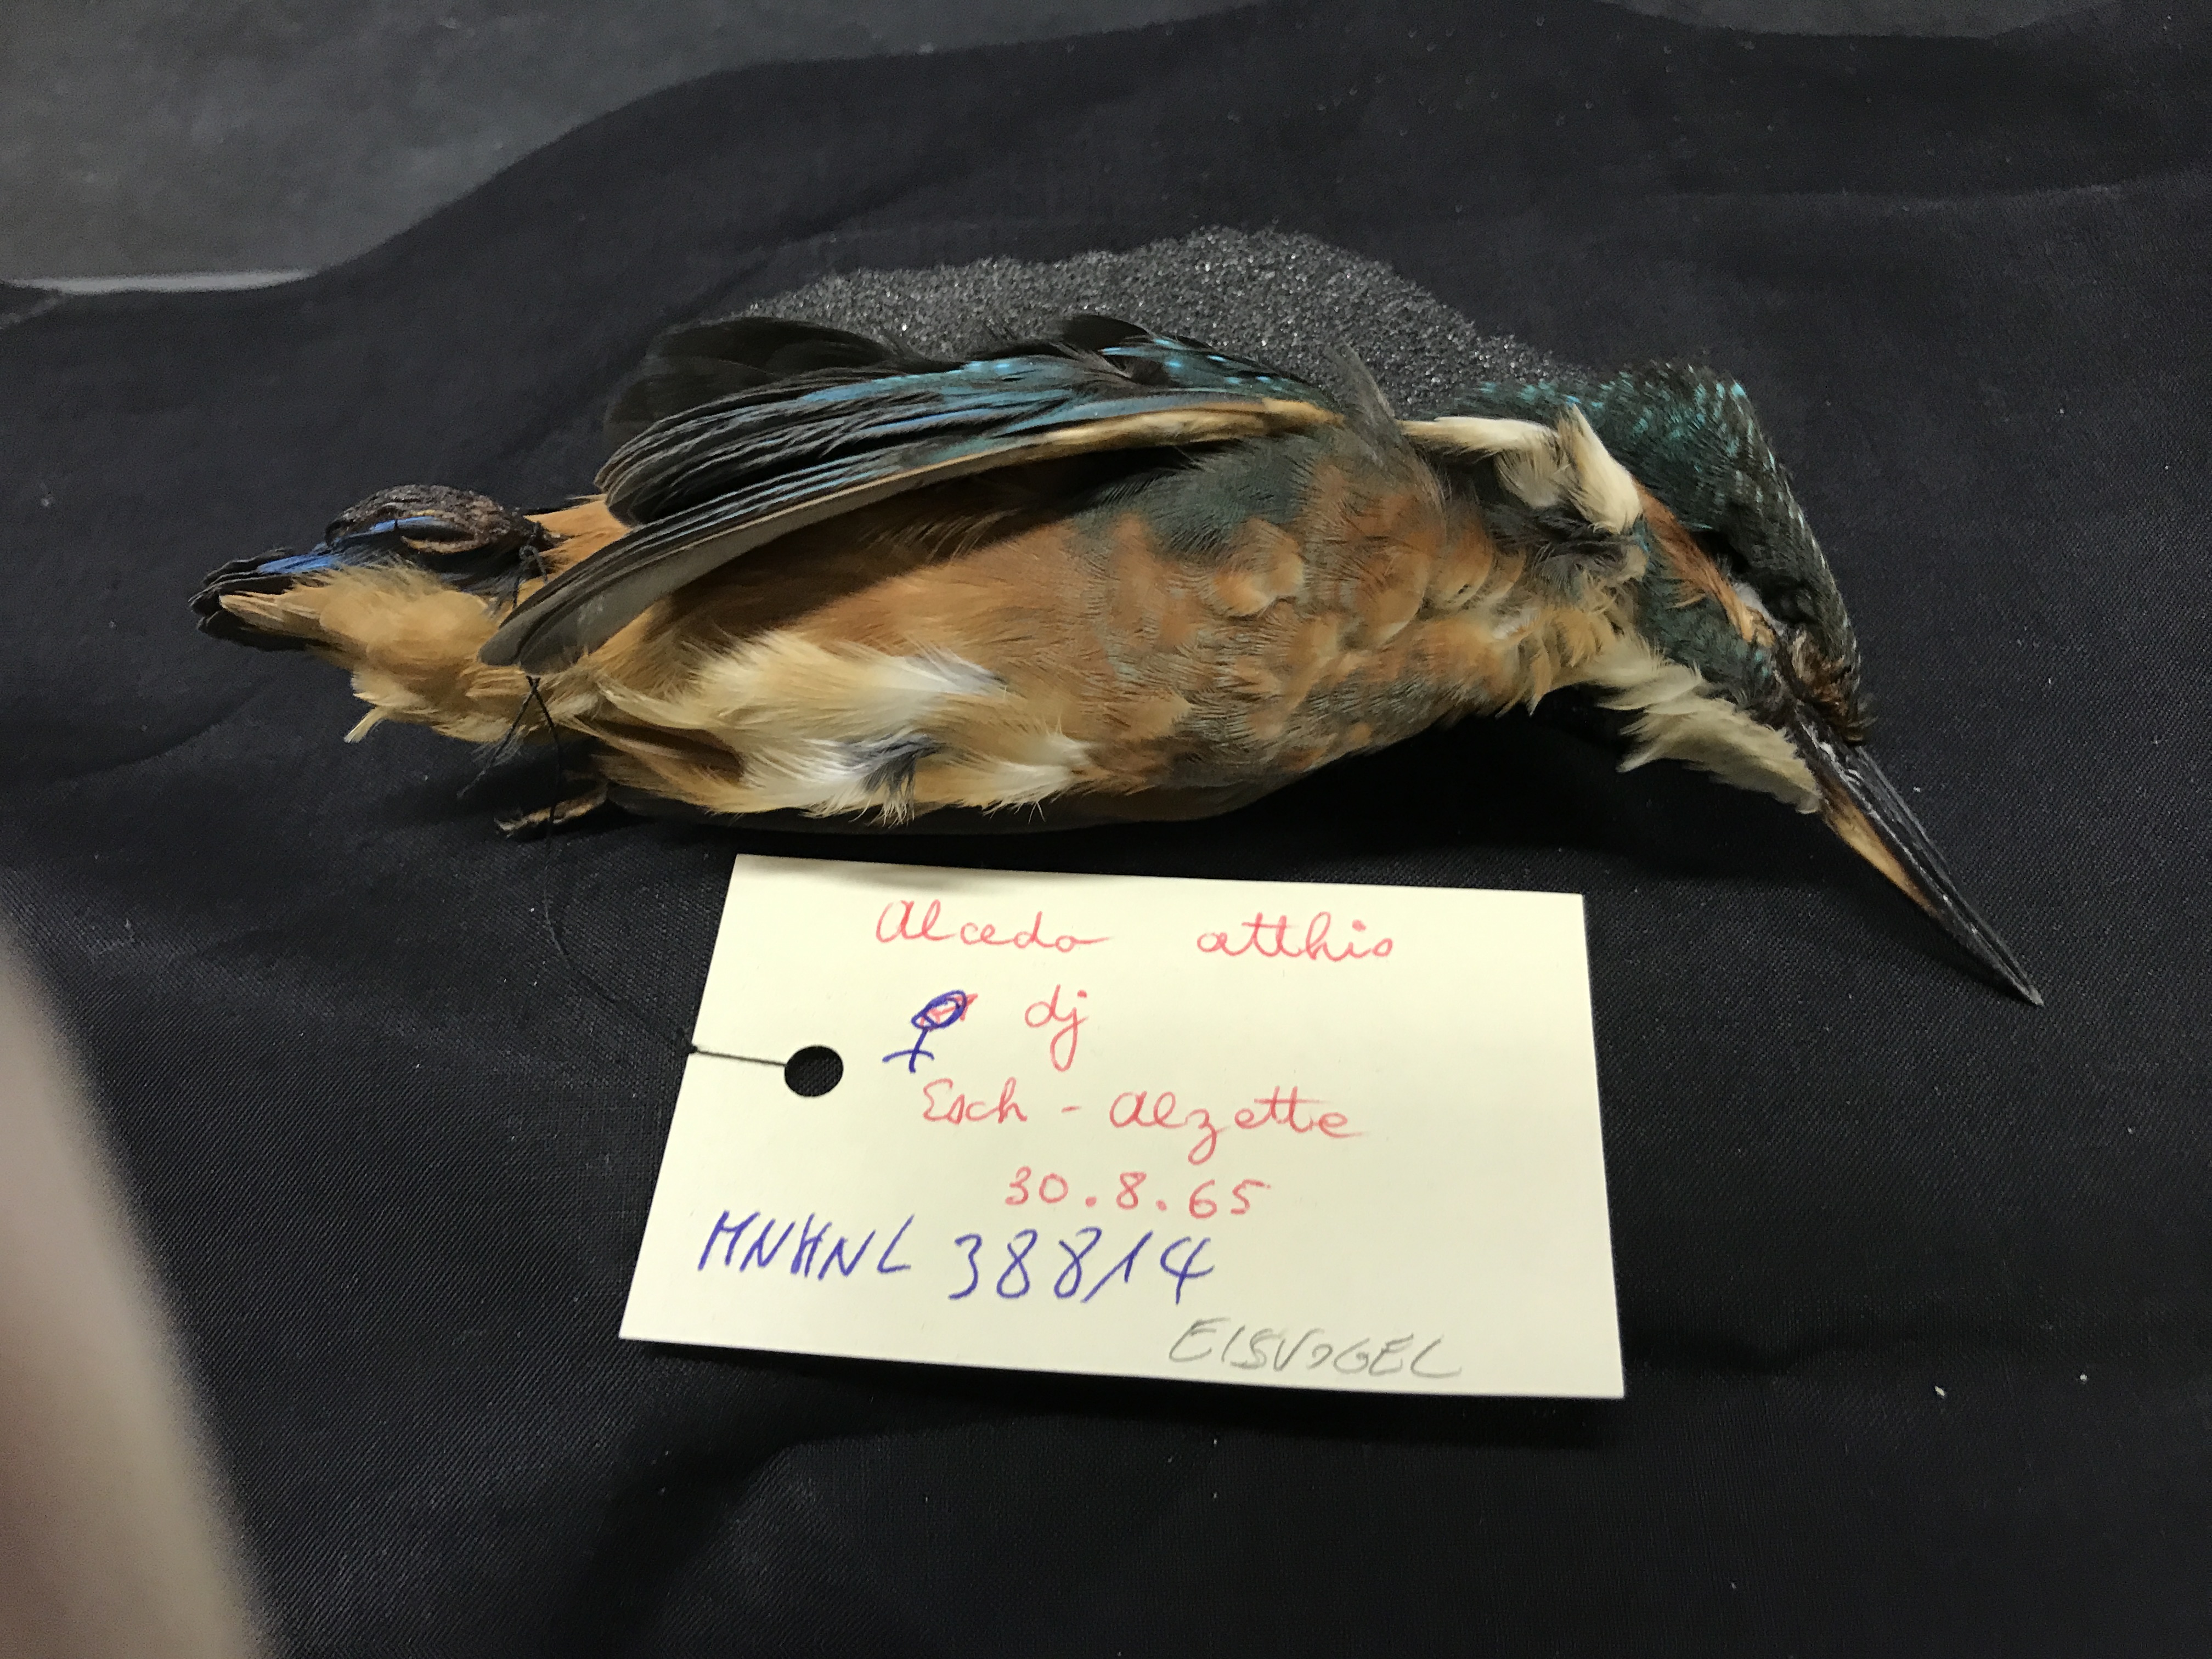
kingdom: Animalia
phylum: Chordata
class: Aves
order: Coraciiformes
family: Alcedinidae
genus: Alcedo
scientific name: Alcedo atthis
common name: Common kingfisher
